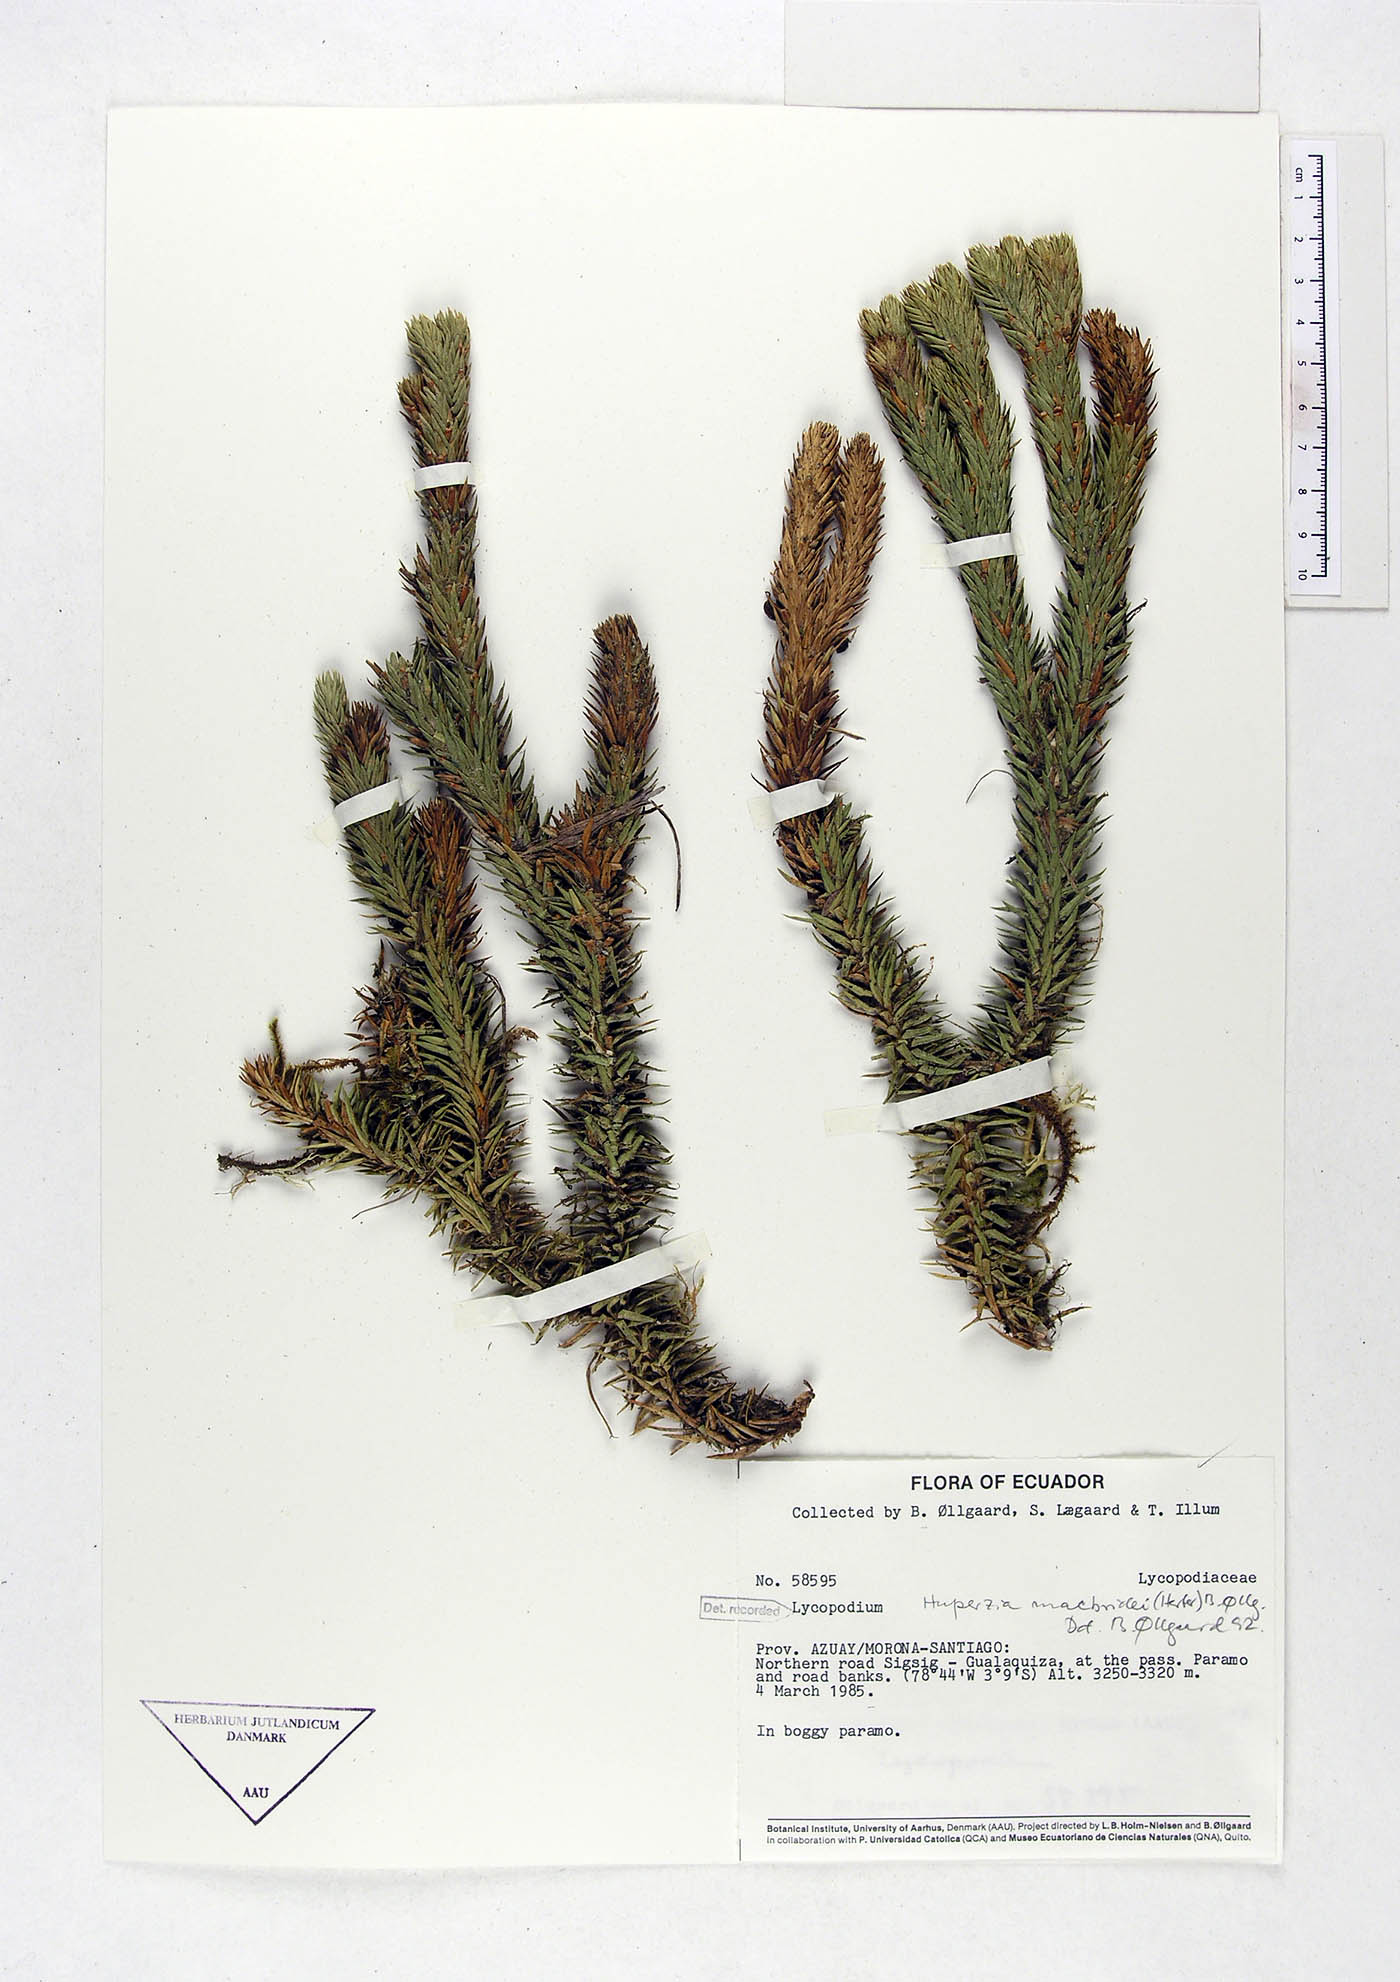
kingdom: Plantae
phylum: Tracheophyta
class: Lycopodiopsida
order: Lycopodiales
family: Lycopodiaceae
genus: Phlegmariurus
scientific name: Phlegmariurus macbridei
